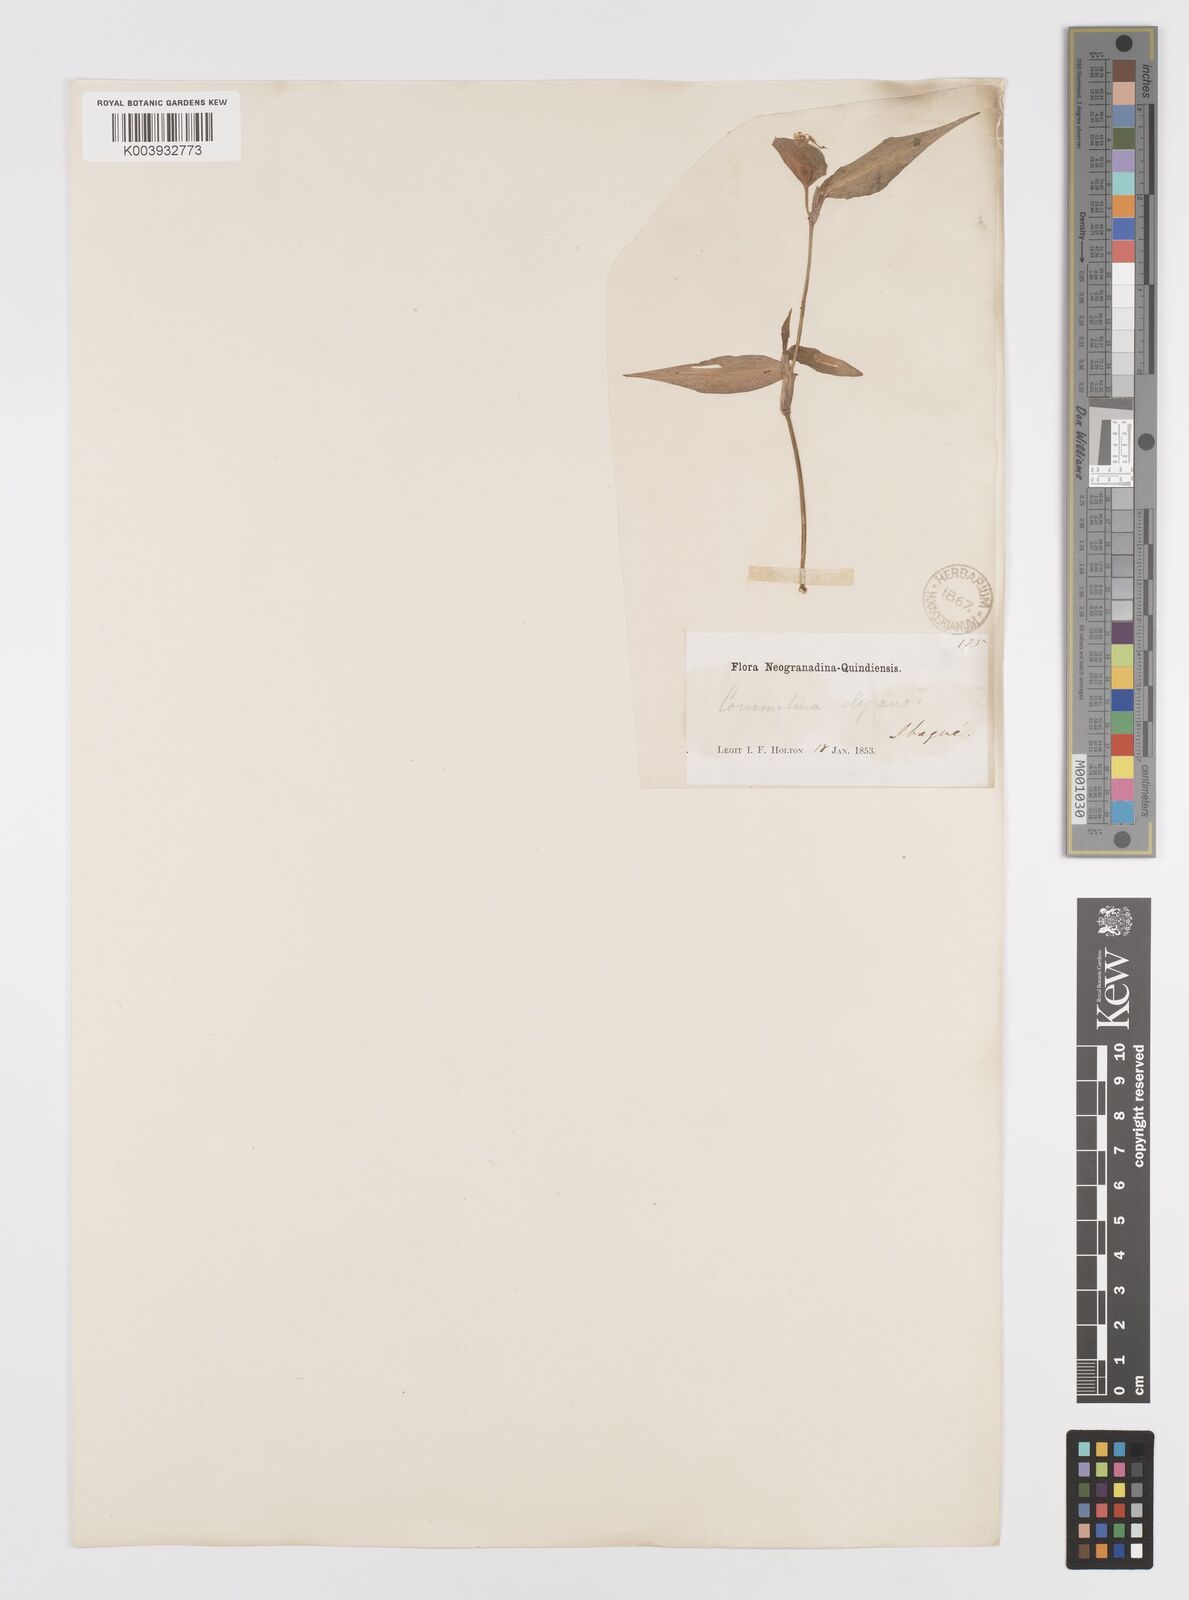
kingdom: Plantae
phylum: Tracheophyta
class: Liliopsida
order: Commelinales
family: Commelinaceae
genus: Commelina
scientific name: Commelina virginica
